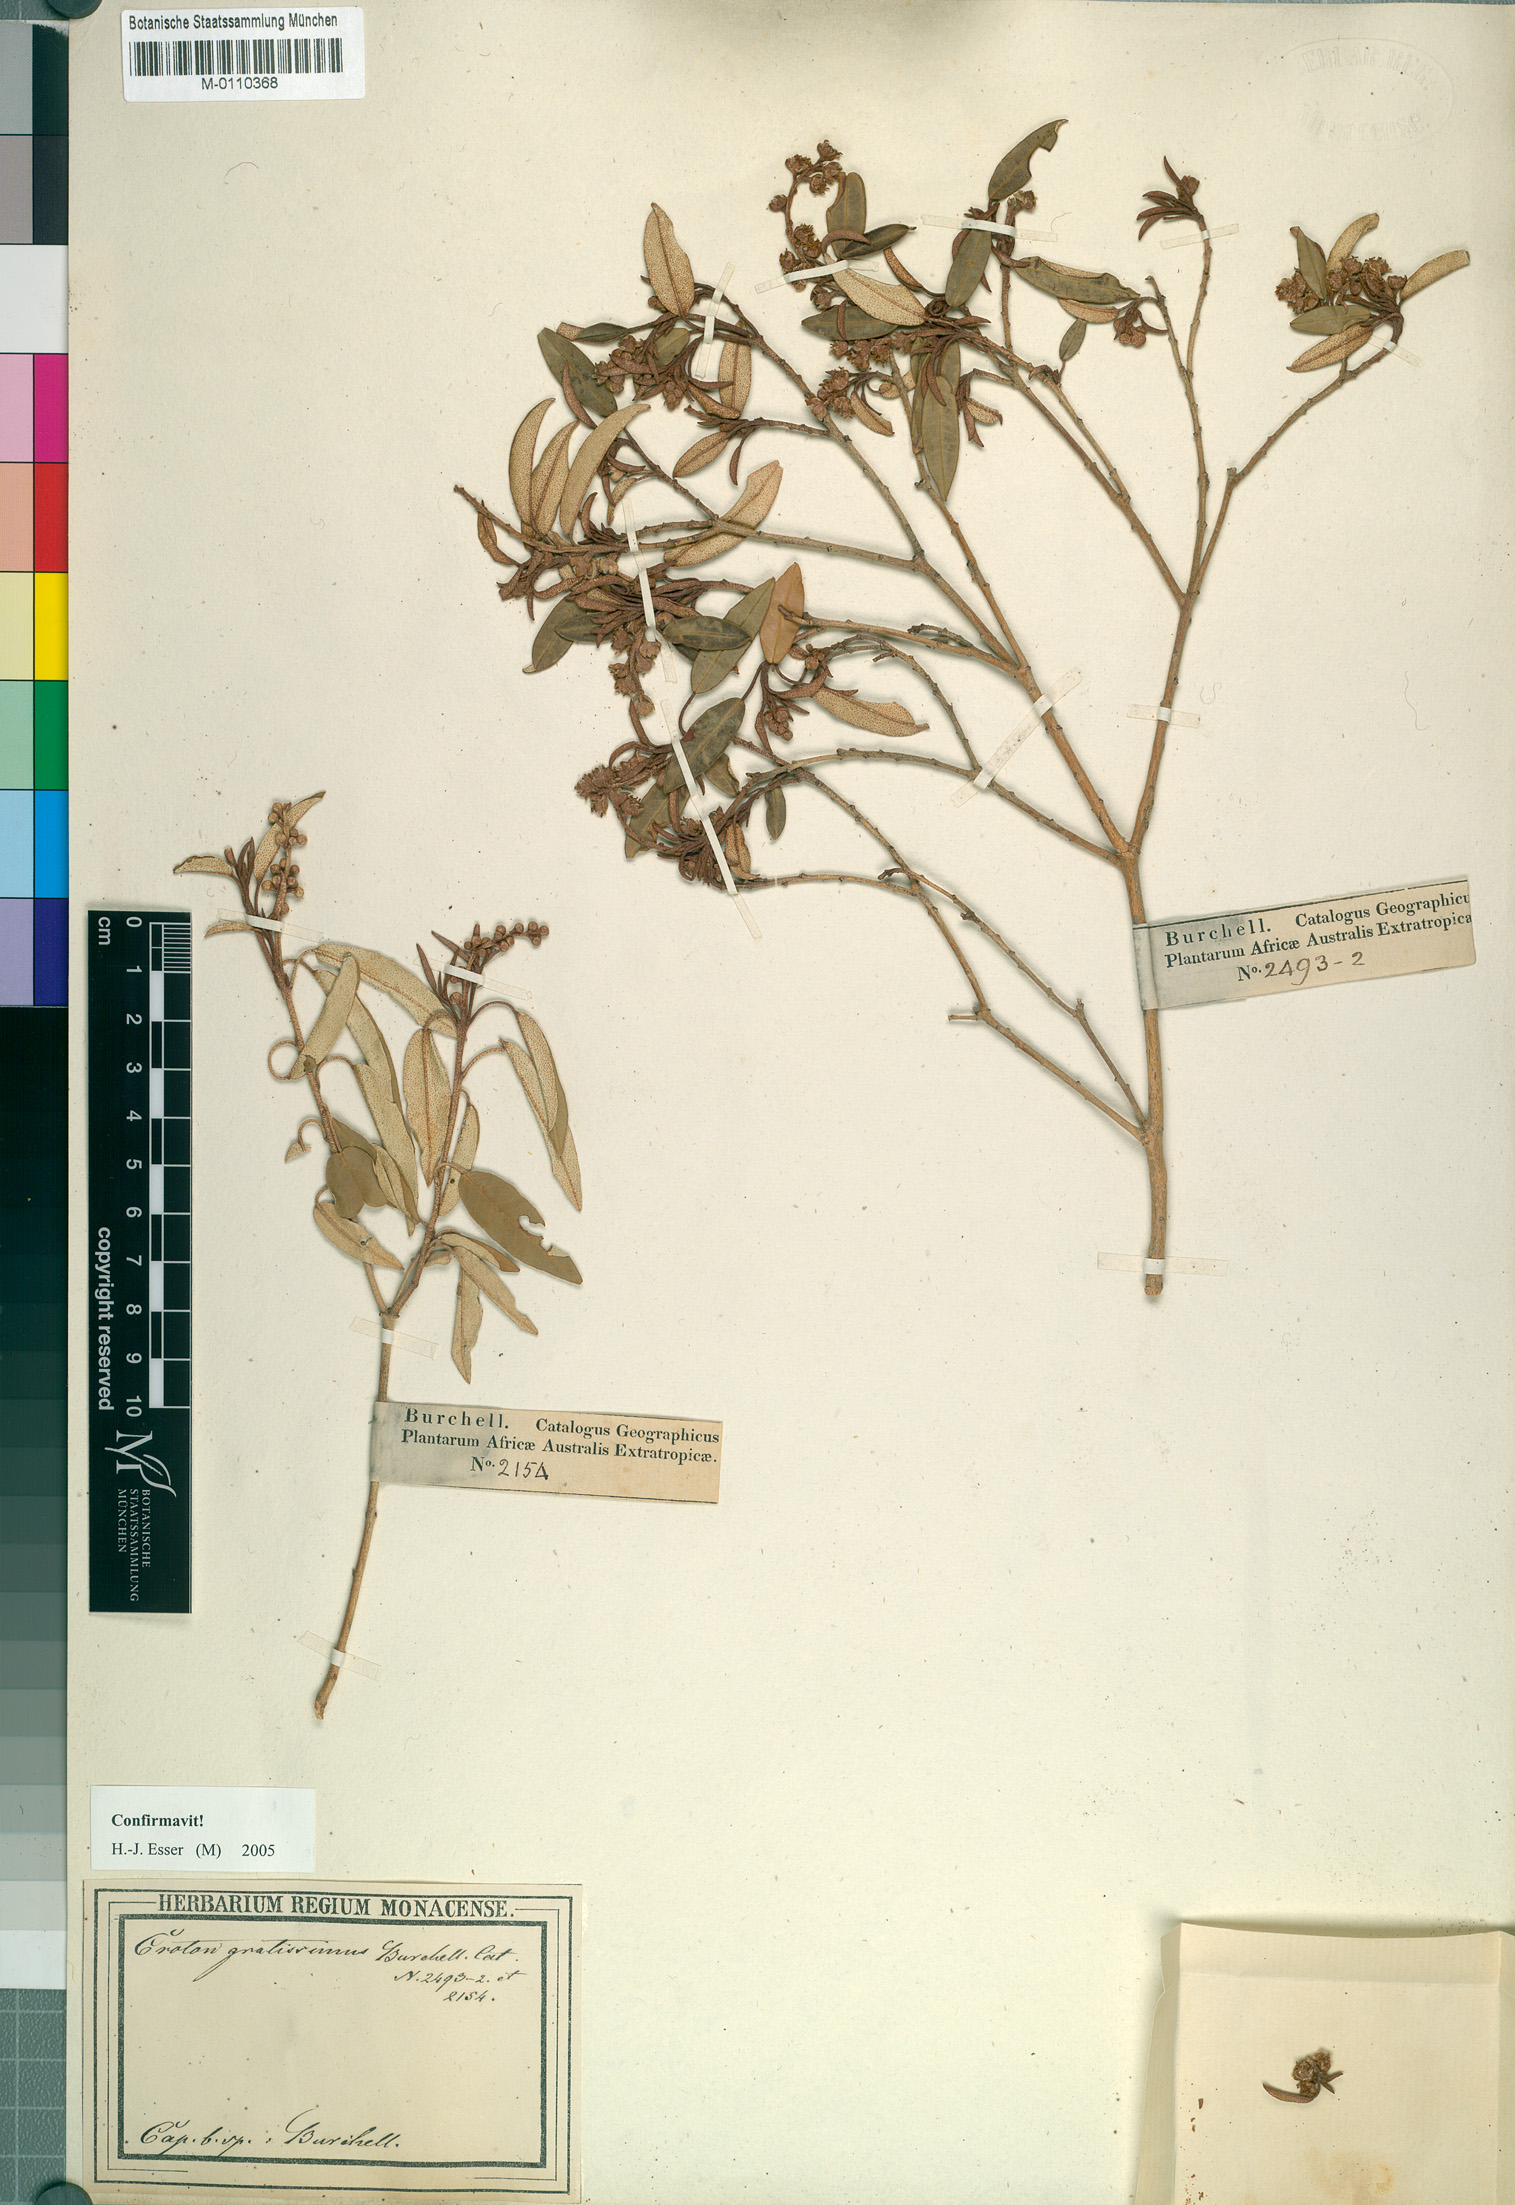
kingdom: Plantae
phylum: Tracheophyta
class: Magnoliopsida
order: Malpighiales
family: Euphorbiaceae
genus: Croton
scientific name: Croton gratissimus
